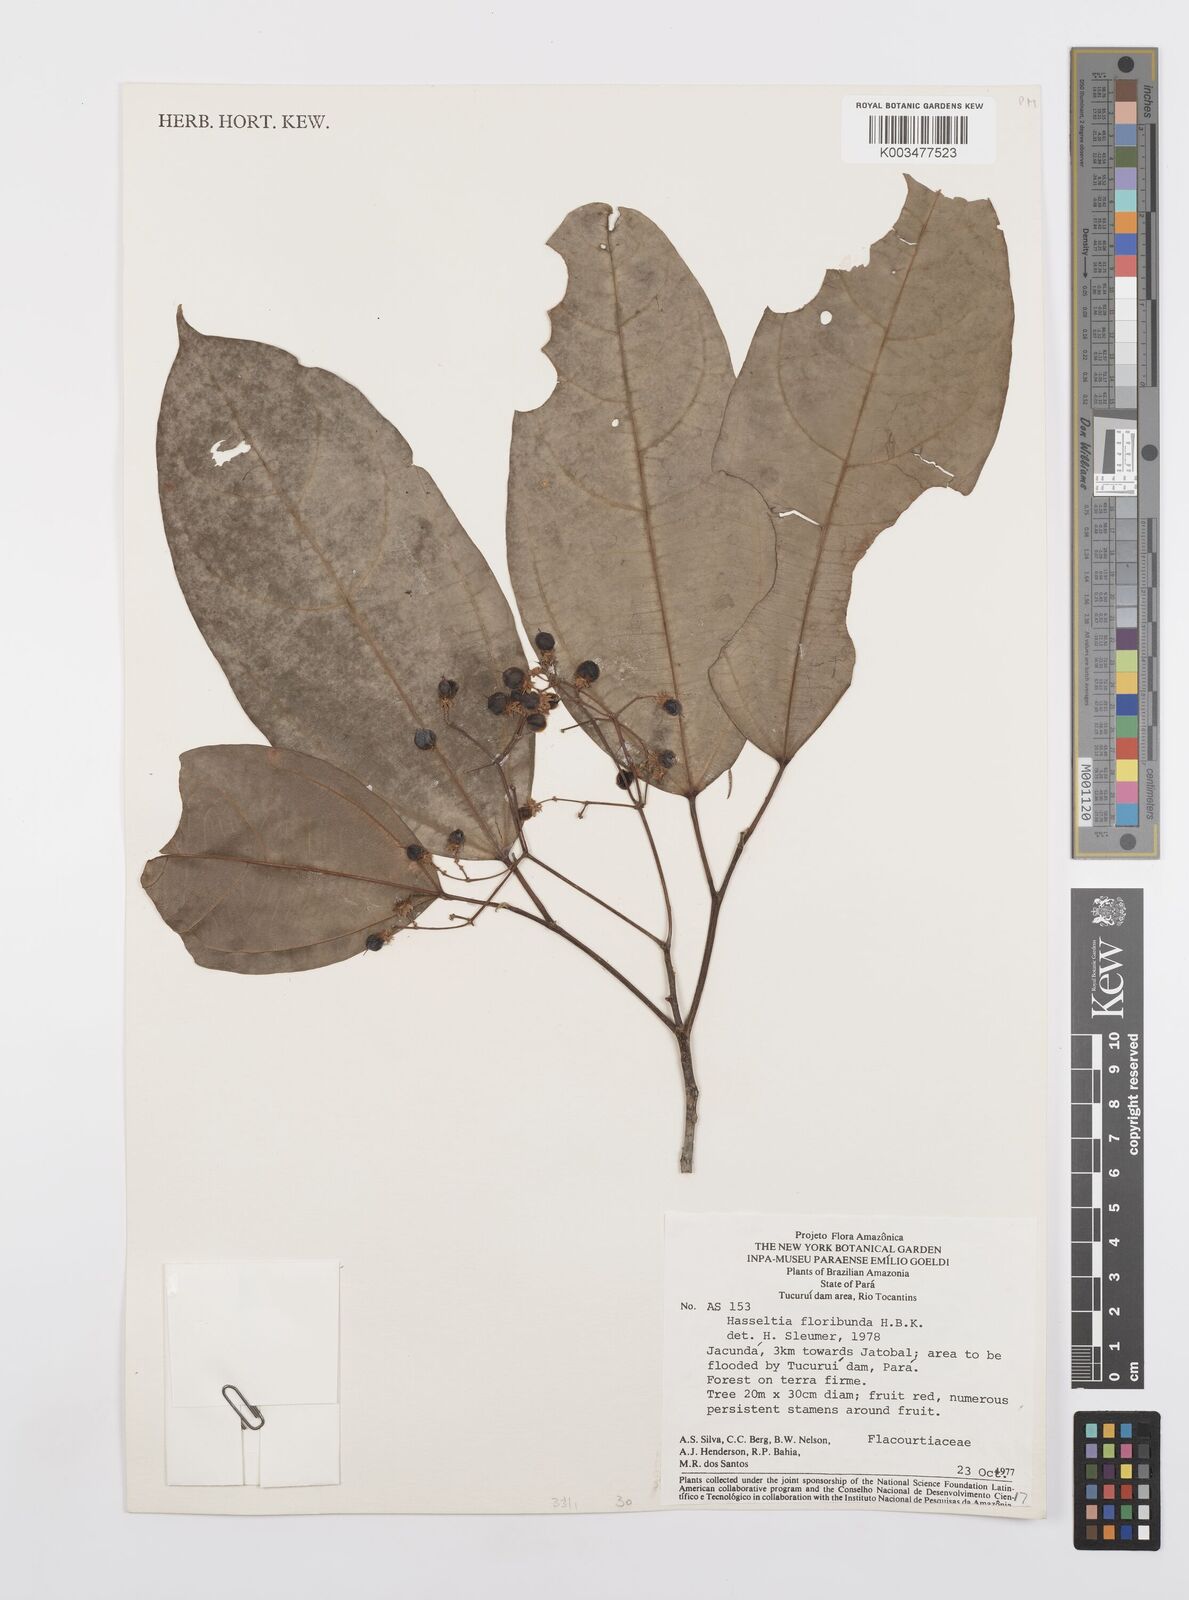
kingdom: Plantae
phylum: Tracheophyta
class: Magnoliopsida
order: Malpighiales
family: Salicaceae
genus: Hasseltia
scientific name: Hasseltia floribunda
